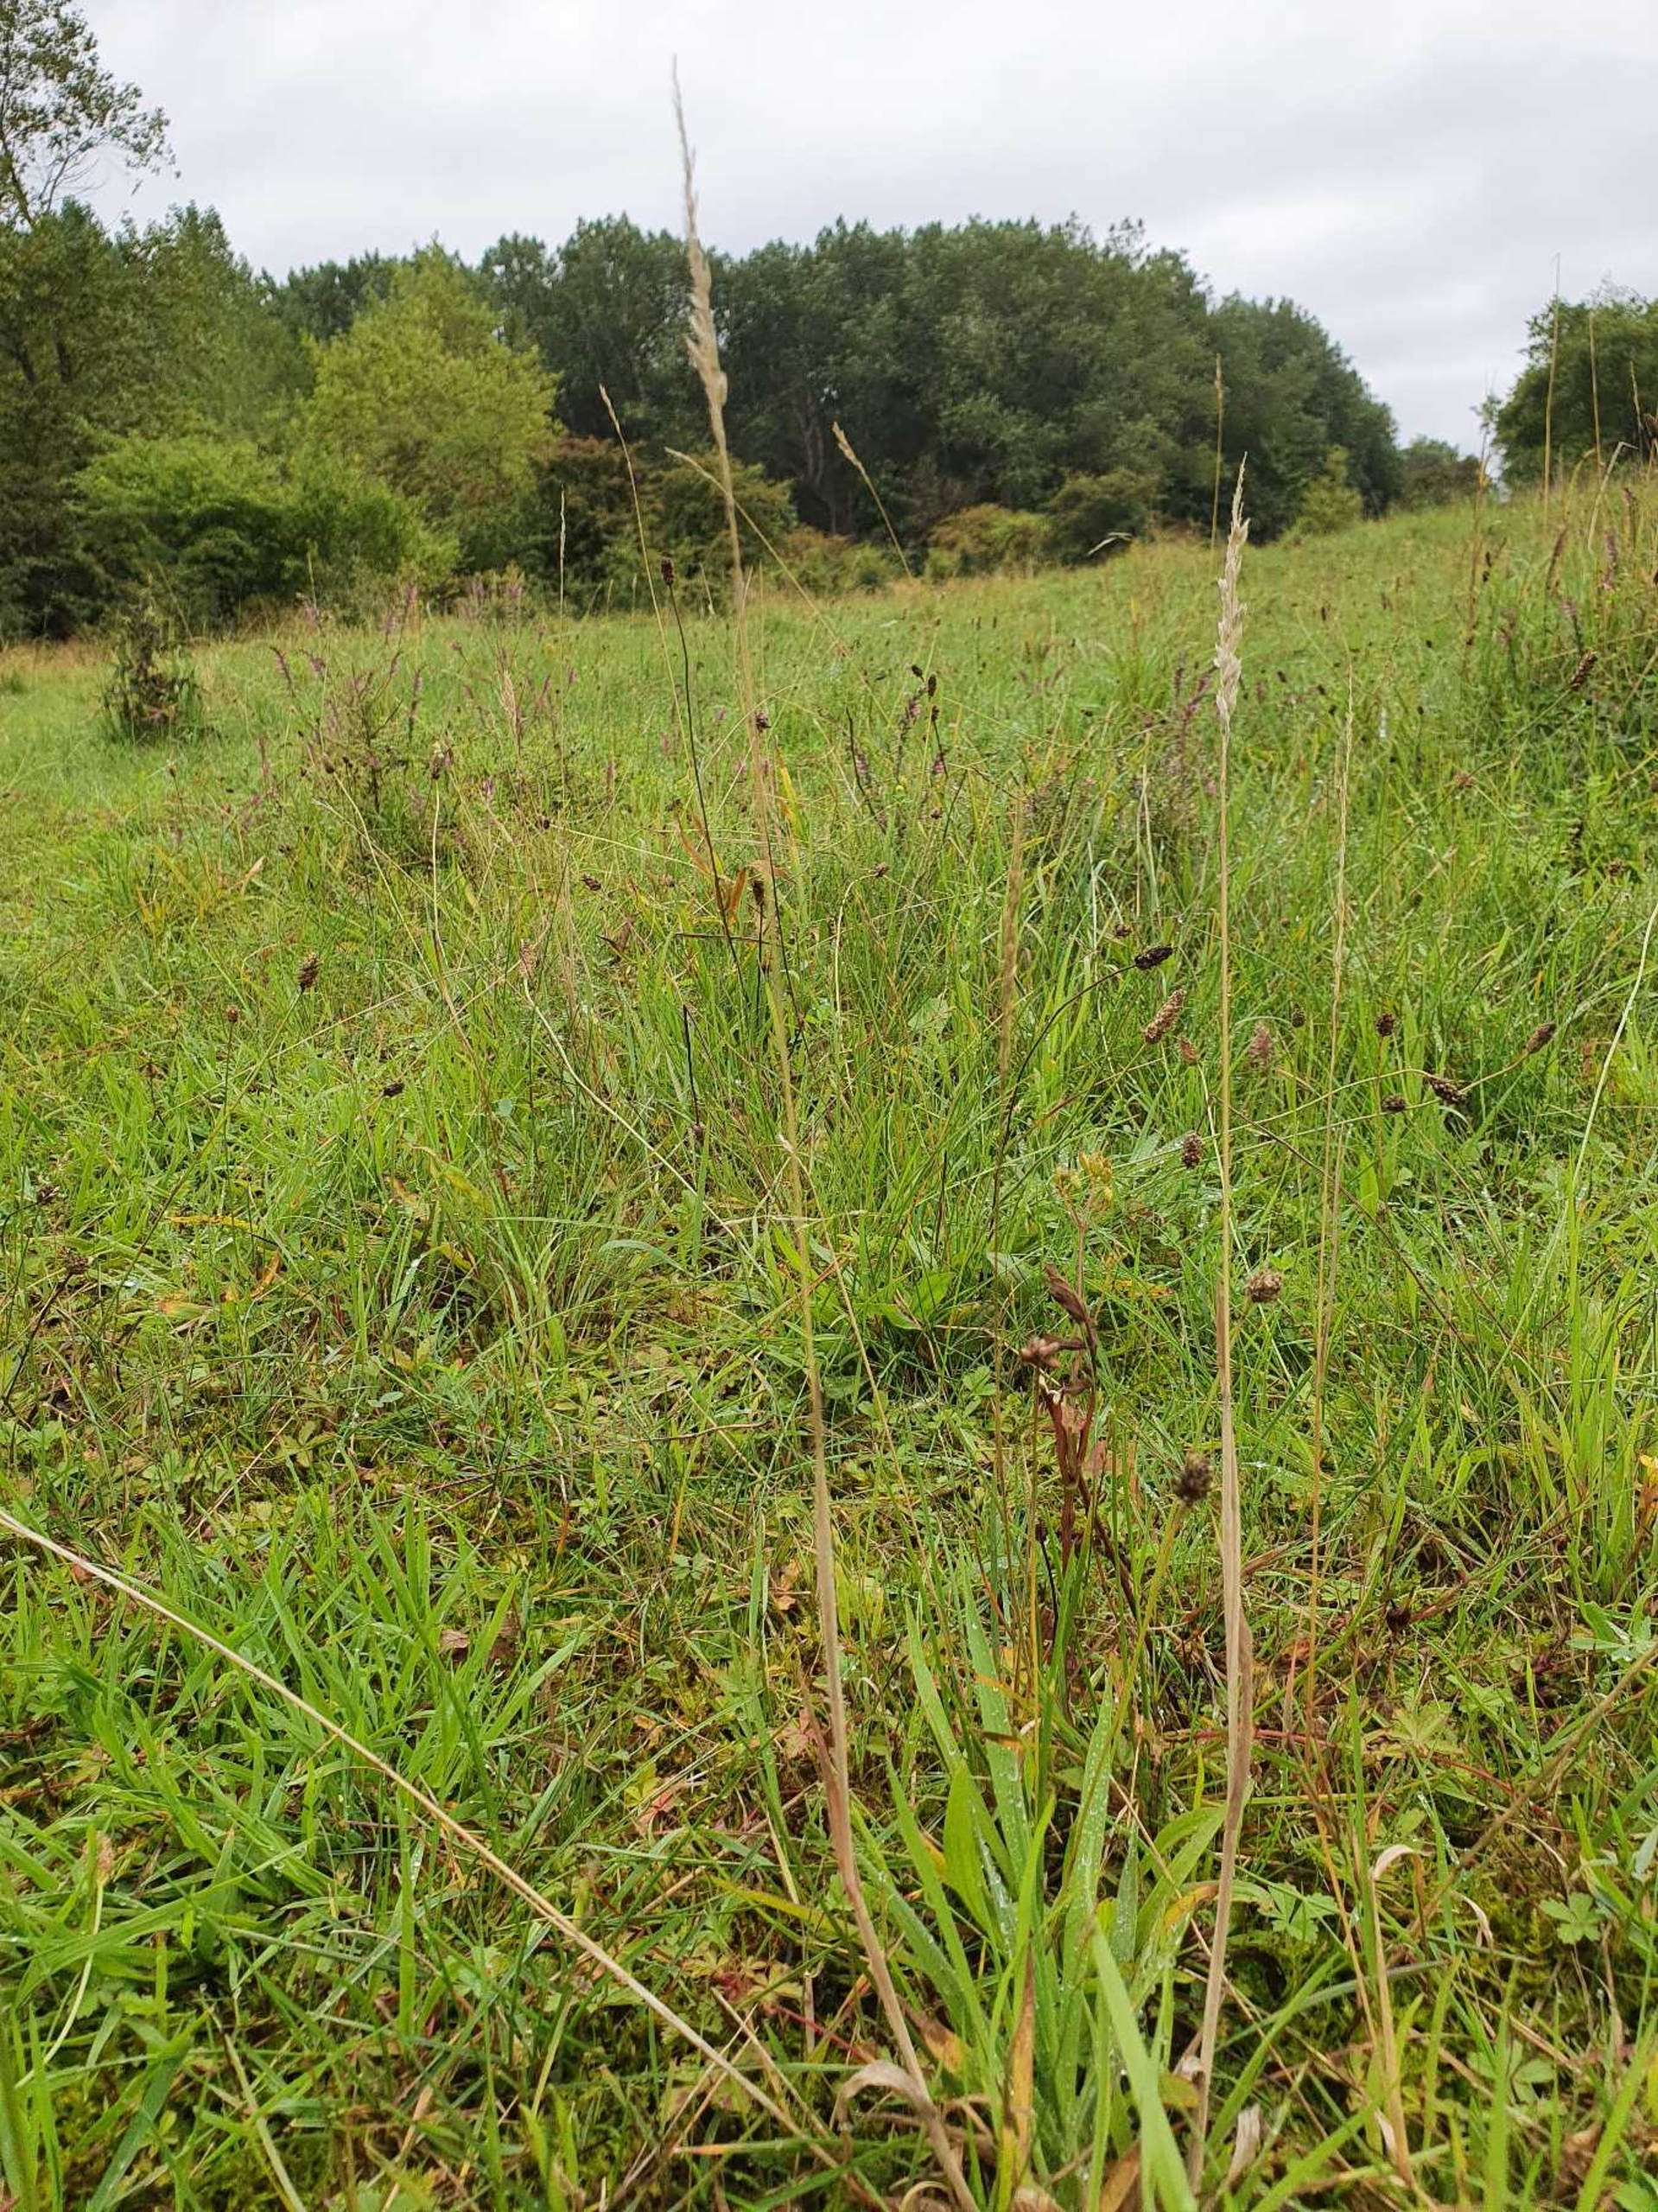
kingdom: Plantae
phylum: Tracheophyta
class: Liliopsida
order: Poales
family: Poaceae
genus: Holcus
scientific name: Holcus lanatus
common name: Fløjlsgræs
